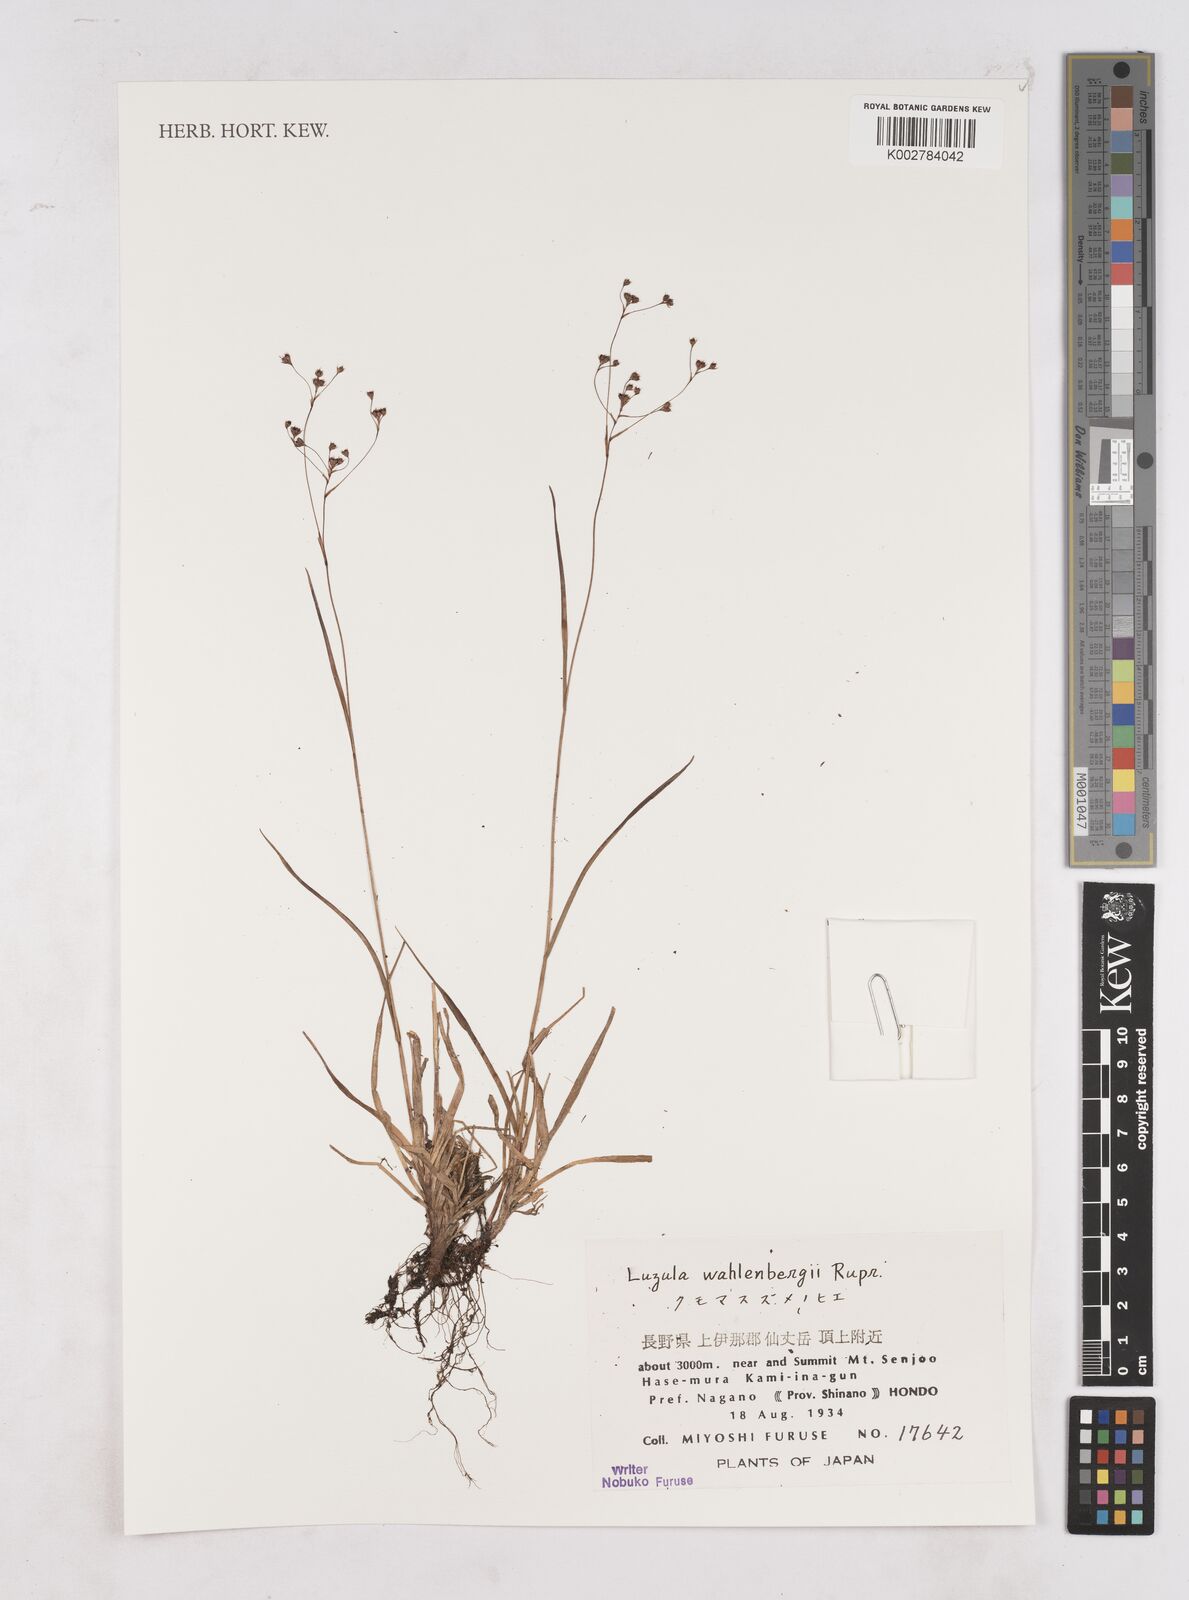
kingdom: Plantae
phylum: Tracheophyta
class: Liliopsida
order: Poales
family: Juncaceae
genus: Luzula
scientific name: Luzula wahlenbergii
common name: Wahlenberg's wood-rush
